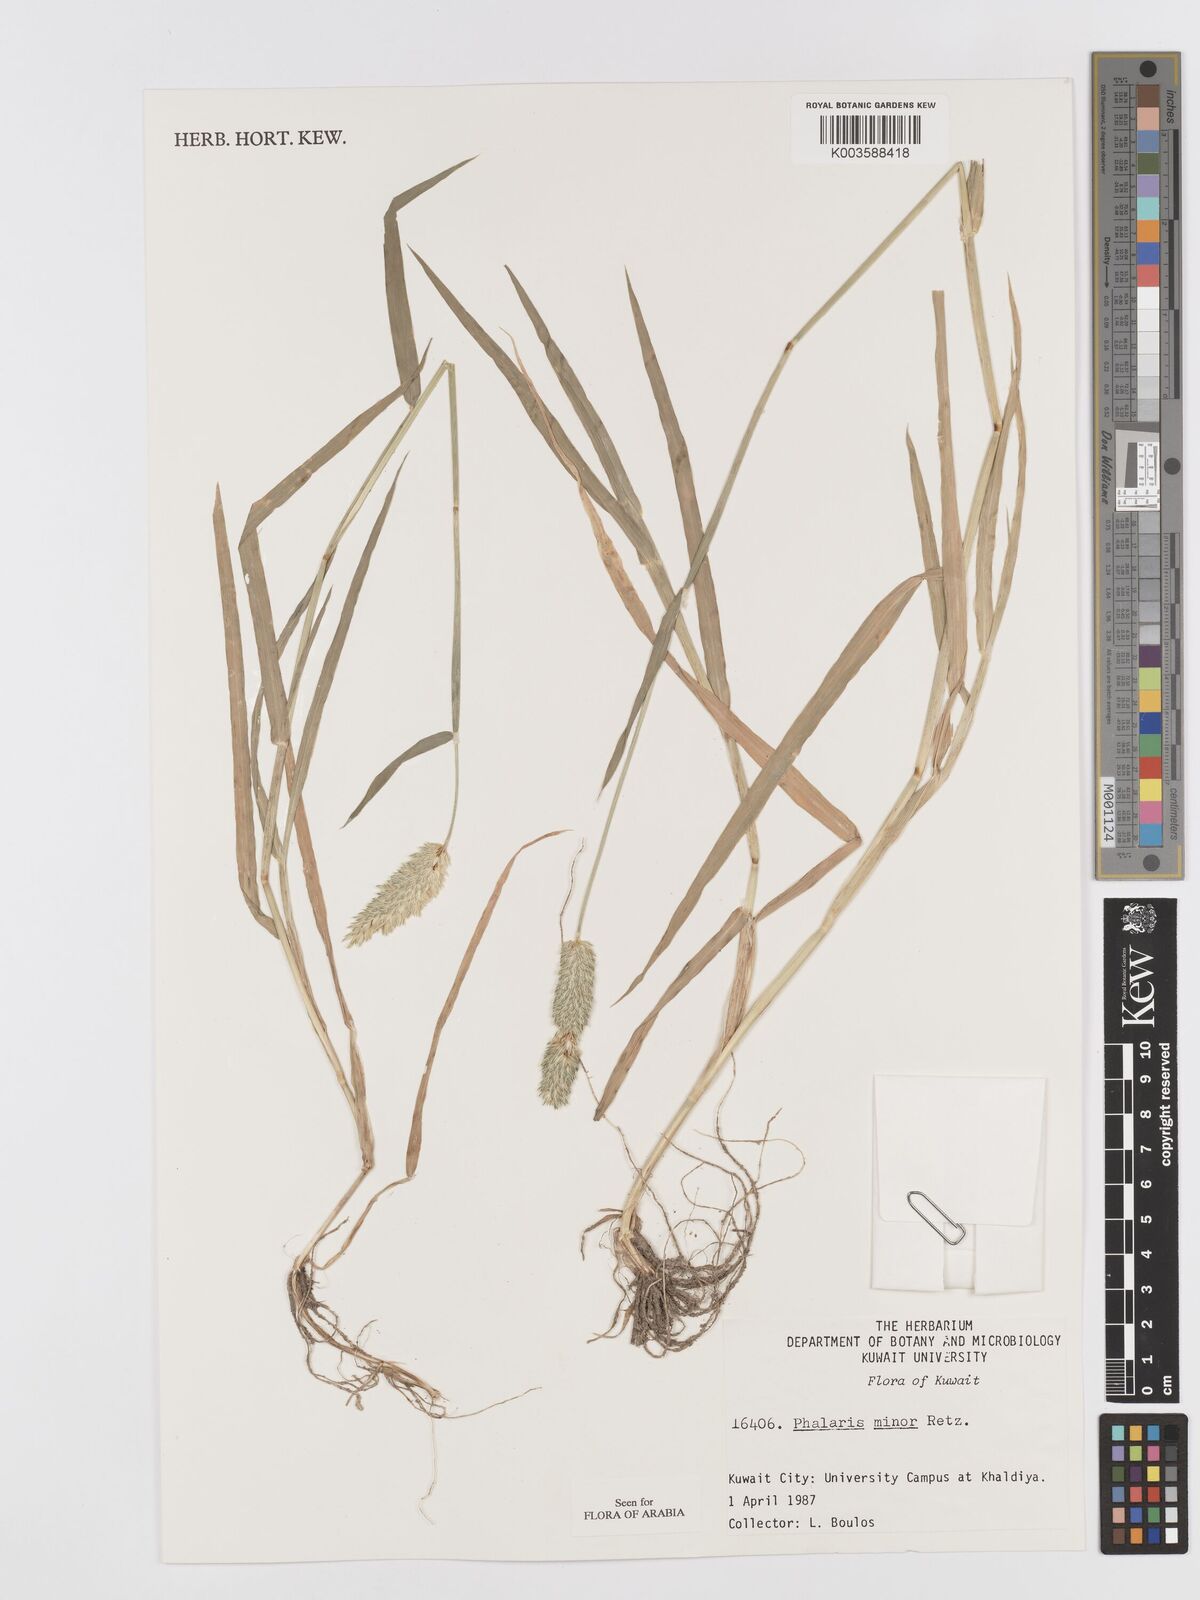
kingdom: Plantae
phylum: Tracheophyta
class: Liliopsida
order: Poales
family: Poaceae
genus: Phalaris
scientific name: Phalaris minor
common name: Littleseed canarygrass
